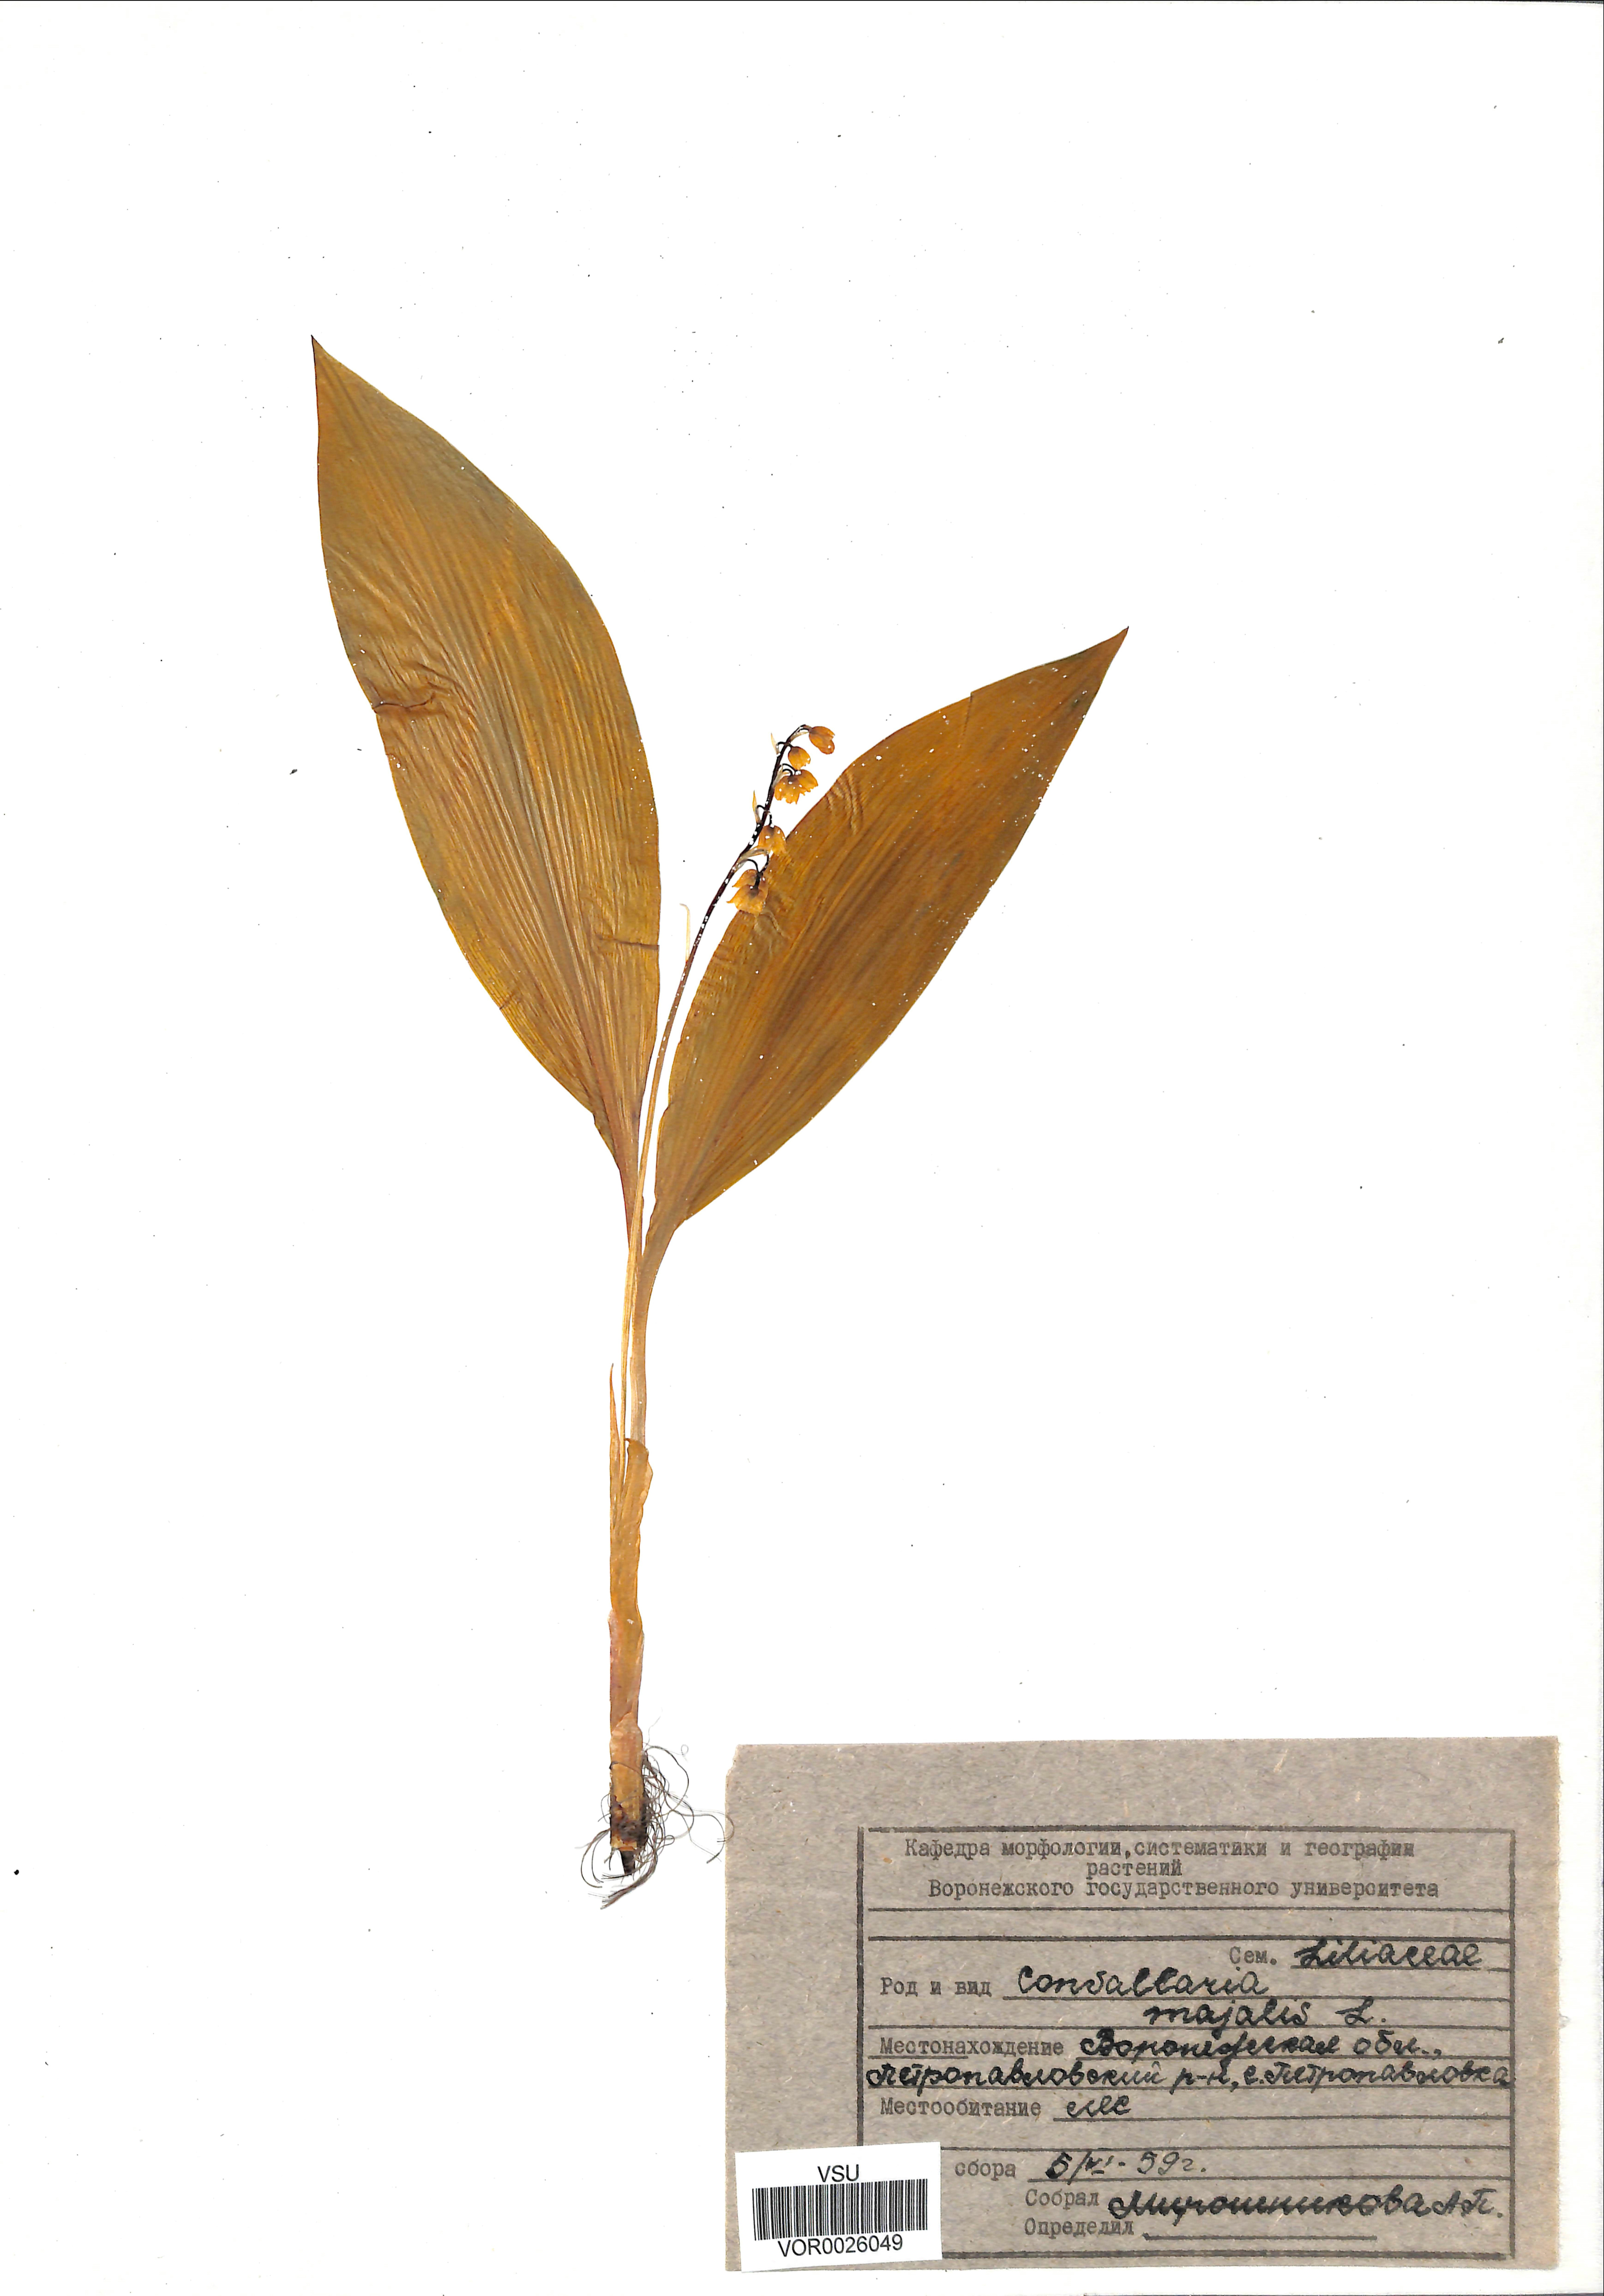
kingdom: Plantae
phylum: Tracheophyta
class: Liliopsida
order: Asparagales
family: Asparagaceae
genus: Convallaria
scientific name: Convallaria majalis
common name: Lily-of-the-valley
